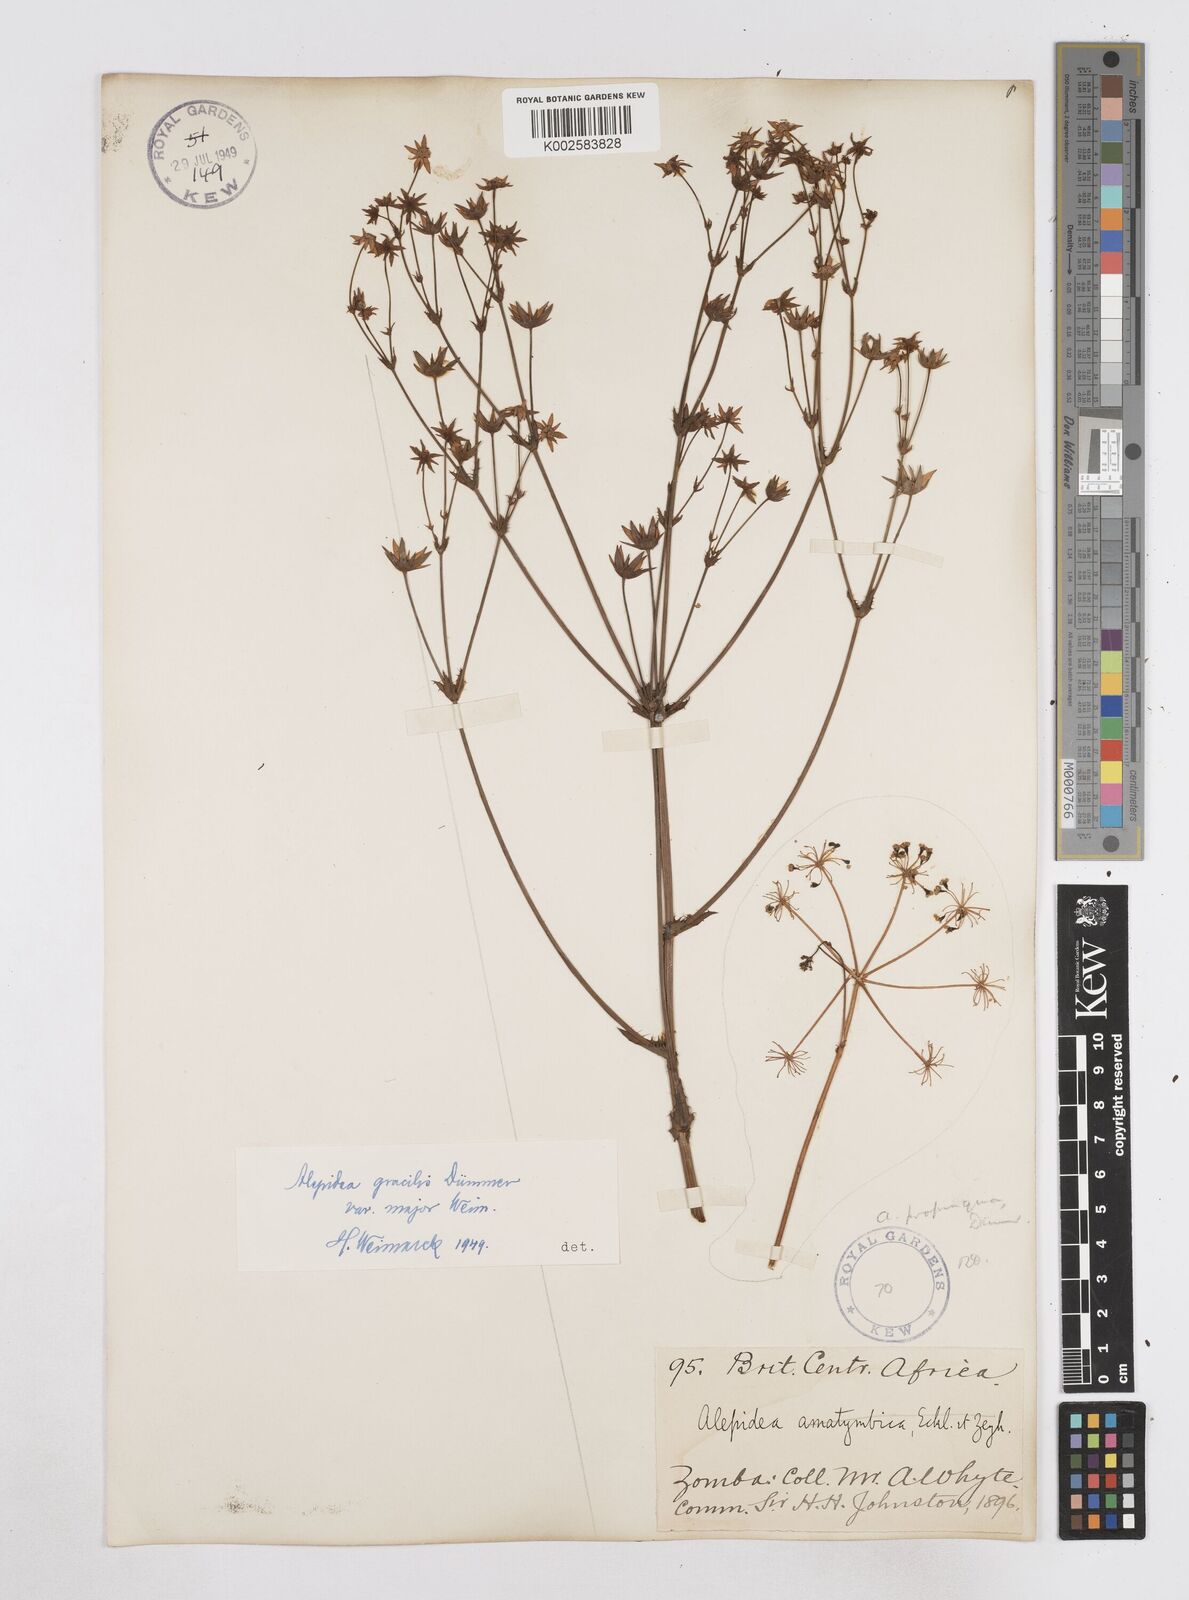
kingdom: Plantae
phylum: Tracheophyta
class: Magnoliopsida
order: Apiales
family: Apiaceae
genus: Alepidea
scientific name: Alepidea peduncularis
